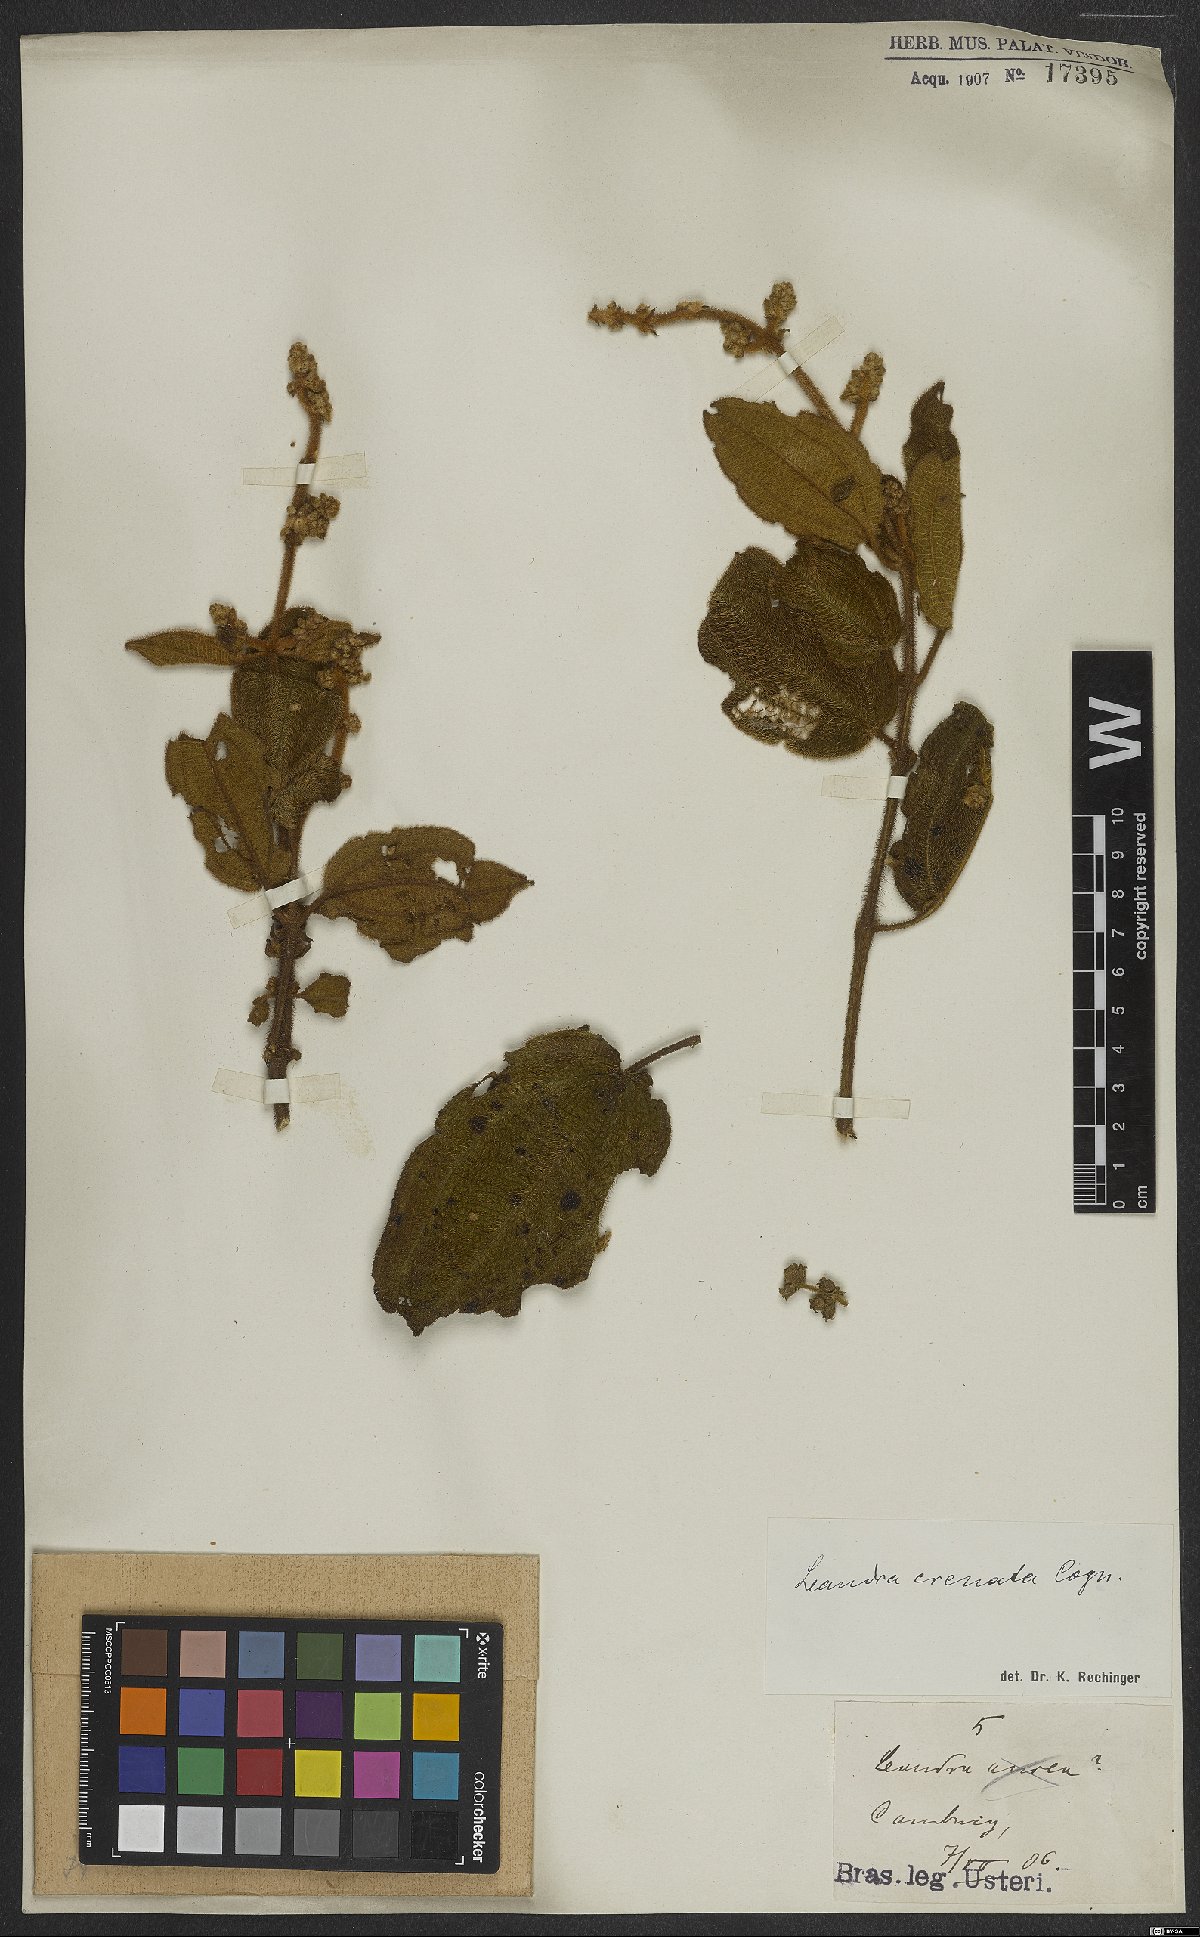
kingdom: Plantae
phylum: Tracheophyta
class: Magnoliopsida
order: Myrtales
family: Melastomataceae
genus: Miconia
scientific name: Miconia leacrenata
